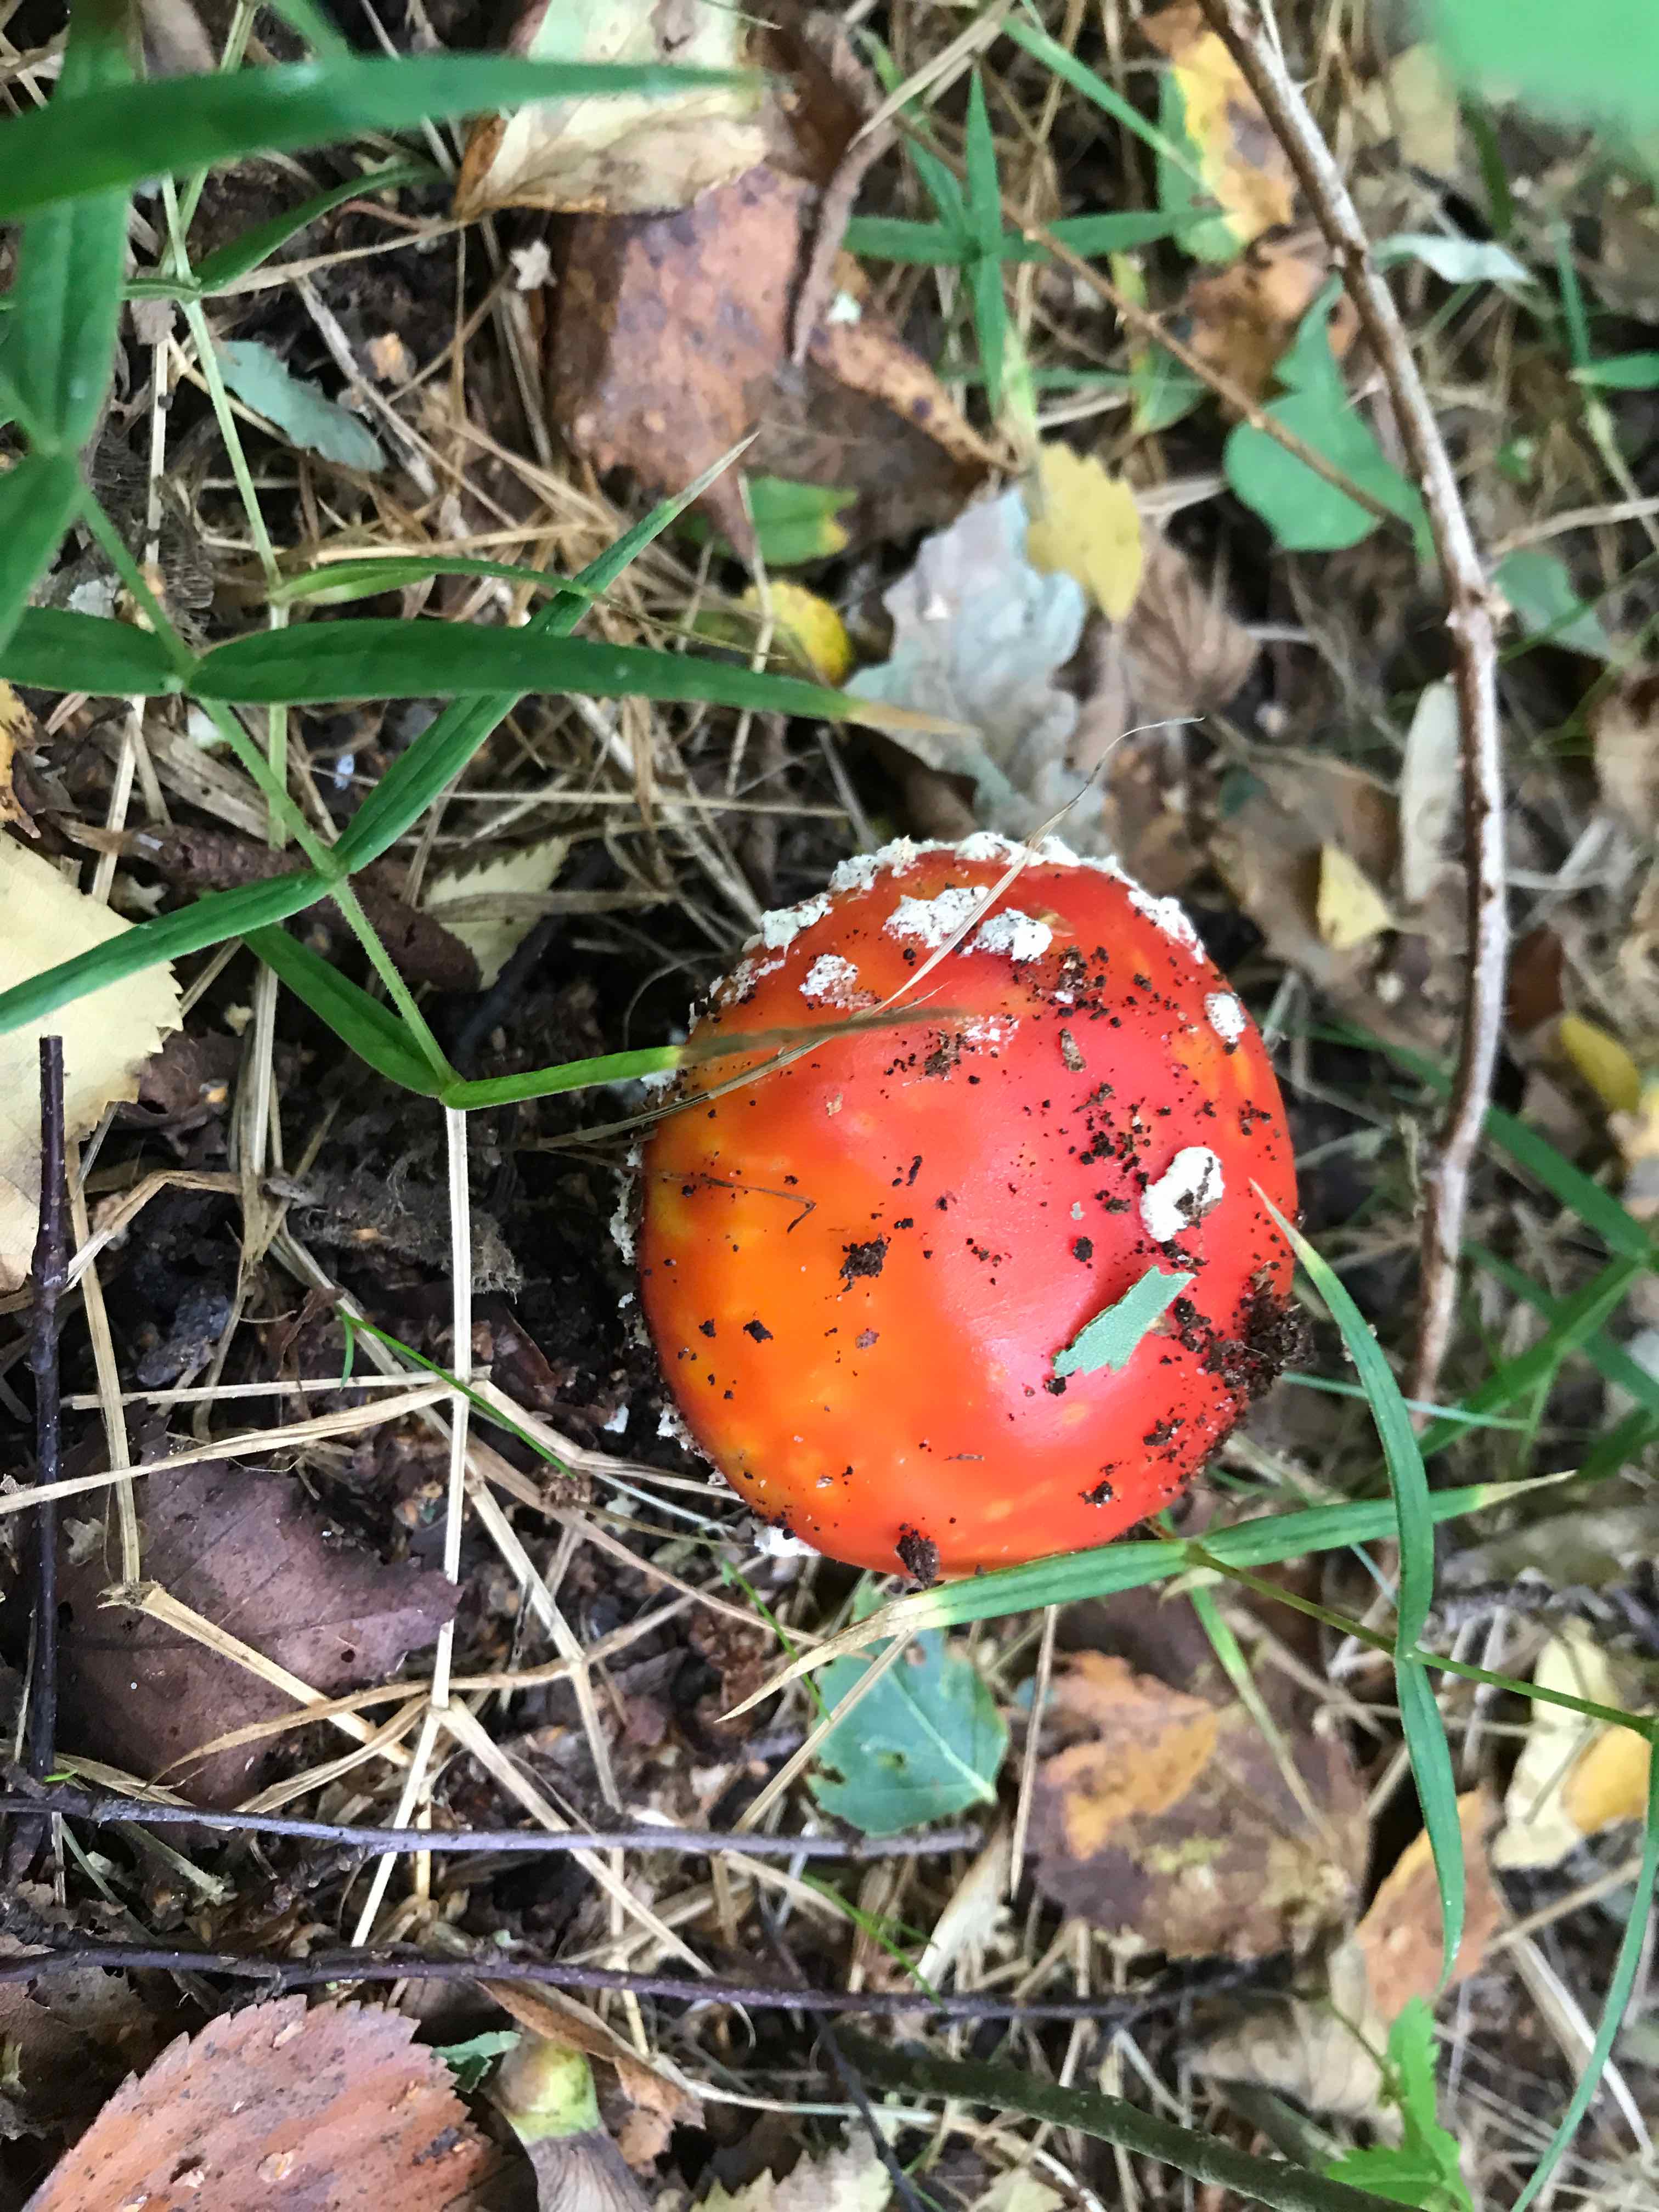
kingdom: Fungi
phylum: Basidiomycota
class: Agaricomycetes
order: Agaricales
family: Amanitaceae
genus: Amanita
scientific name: Amanita muscaria
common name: rød fluesvamp
